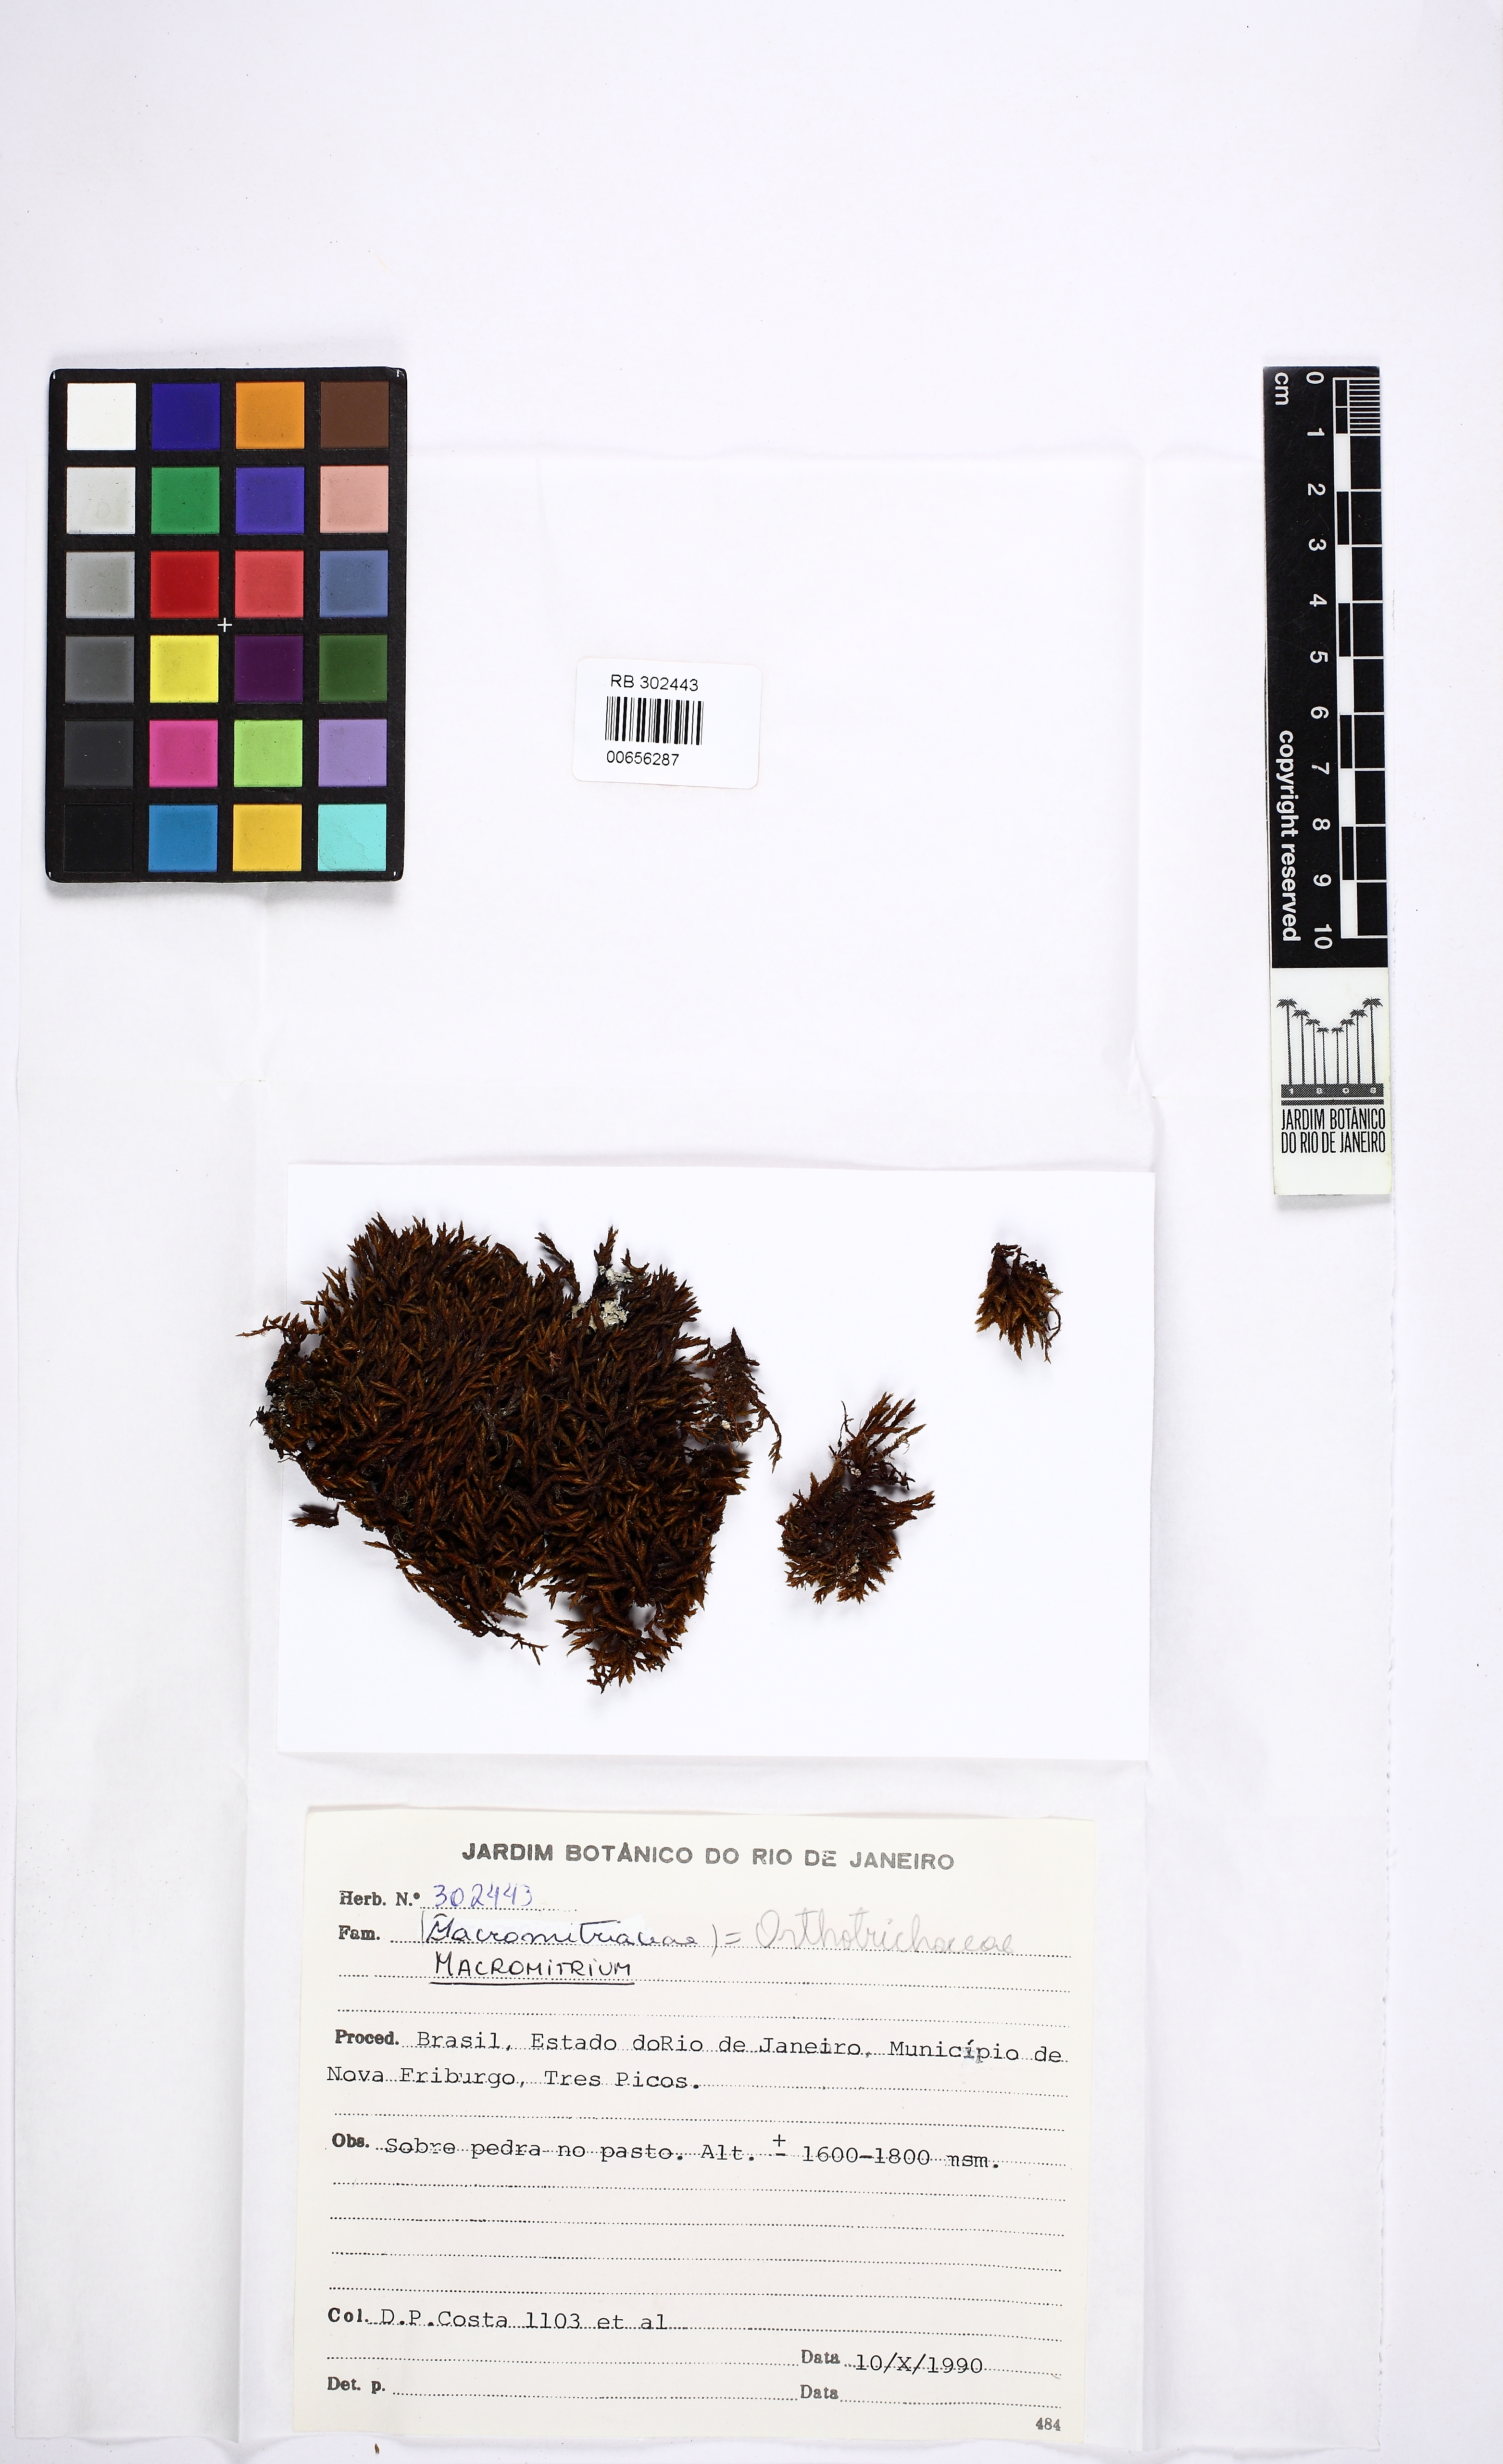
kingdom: Plantae
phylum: Bryophyta
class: Bryopsida
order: Orthotrichales
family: Orthotrichaceae
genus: Macromitrium
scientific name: Macromitrium
